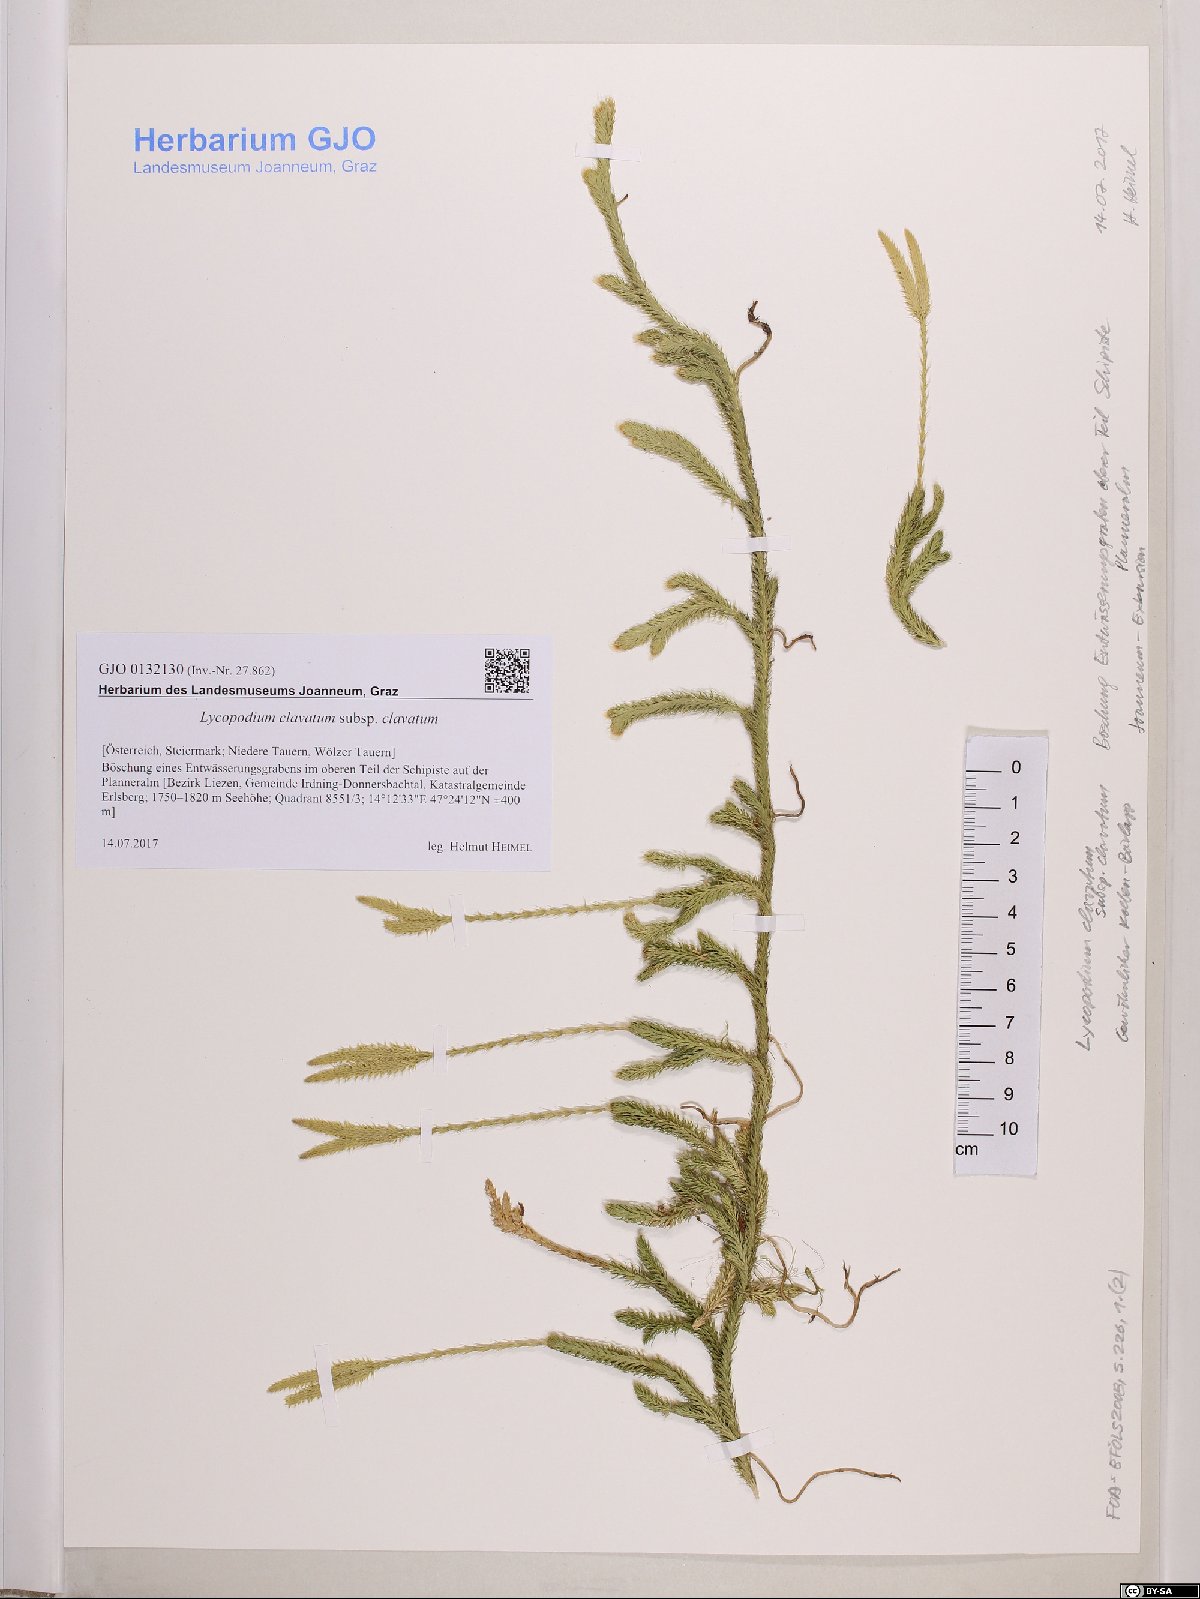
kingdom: Plantae
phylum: Tracheophyta
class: Lycopodiopsida
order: Lycopodiales
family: Lycopodiaceae
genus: Lycopodium
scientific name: Lycopodium clavatum
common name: Stag's-horn clubmoss
